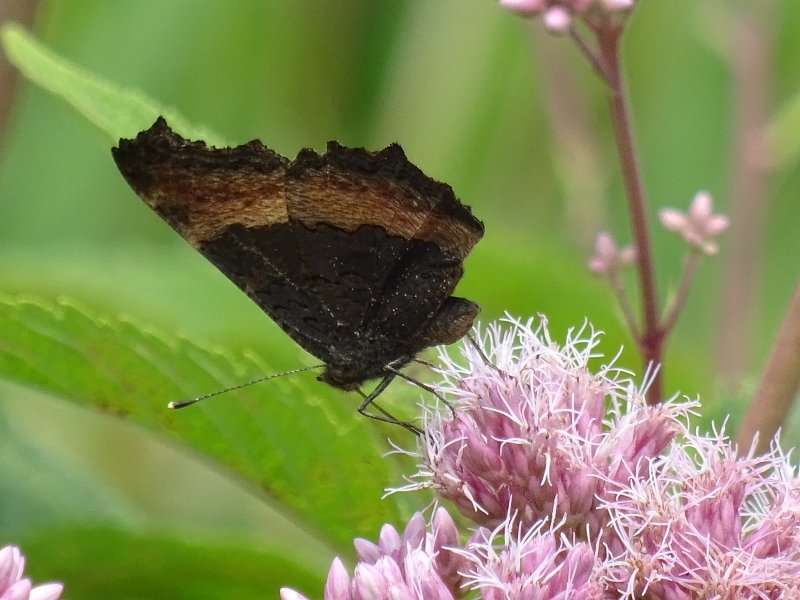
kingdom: Animalia
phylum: Arthropoda
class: Insecta
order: Lepidoptera
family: Nymphalidae
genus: Aglais
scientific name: Aglais milberti
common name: Milbert's Tortoiseshell
